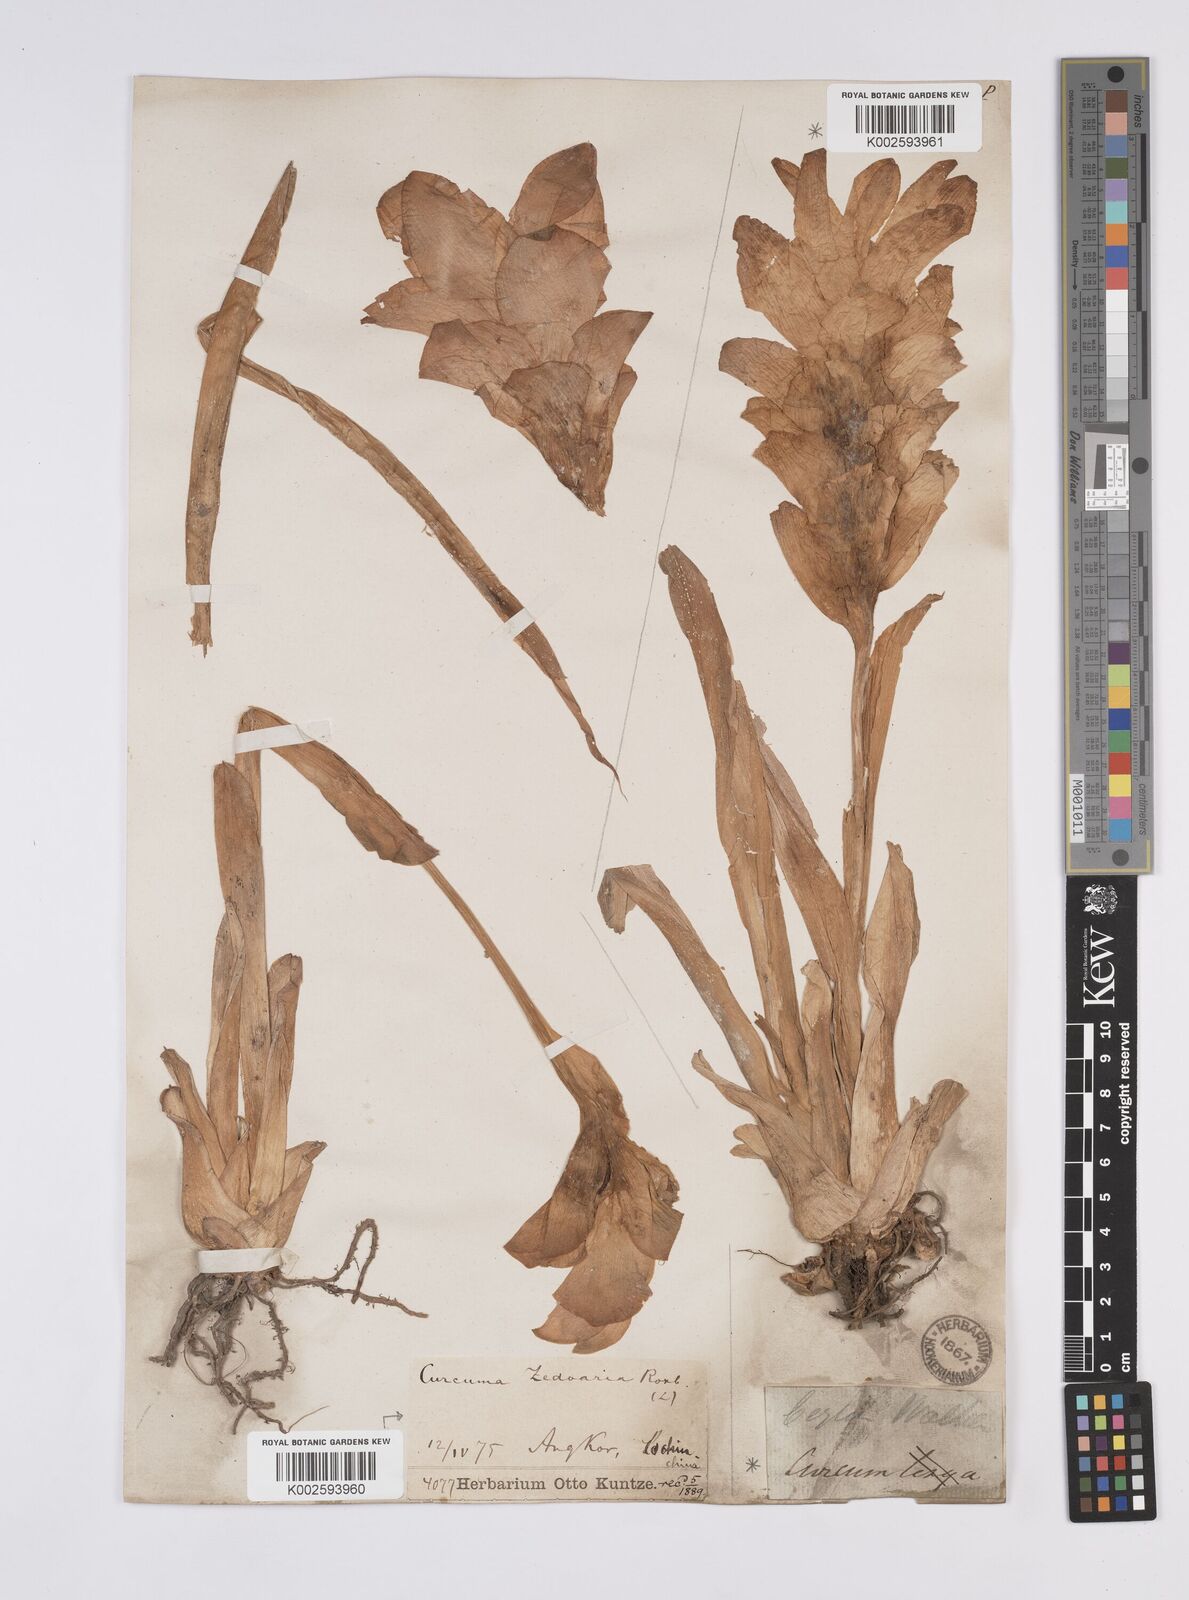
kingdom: Plantae
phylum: Tracheophyta
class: Liliopsida
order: Zingiberales
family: Zingiberaceae
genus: Curcuma
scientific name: Curcuma aromatica
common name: Wild turmeric
